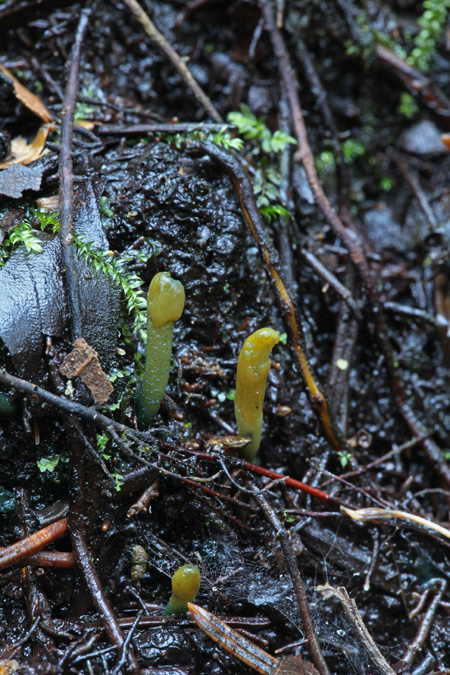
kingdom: Fungi
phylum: Ascomycota
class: Leotiomycetes
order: Leotiales
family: Leotiaceae
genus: Microglossum
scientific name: Microglossum viride
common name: grøn farvetunge
